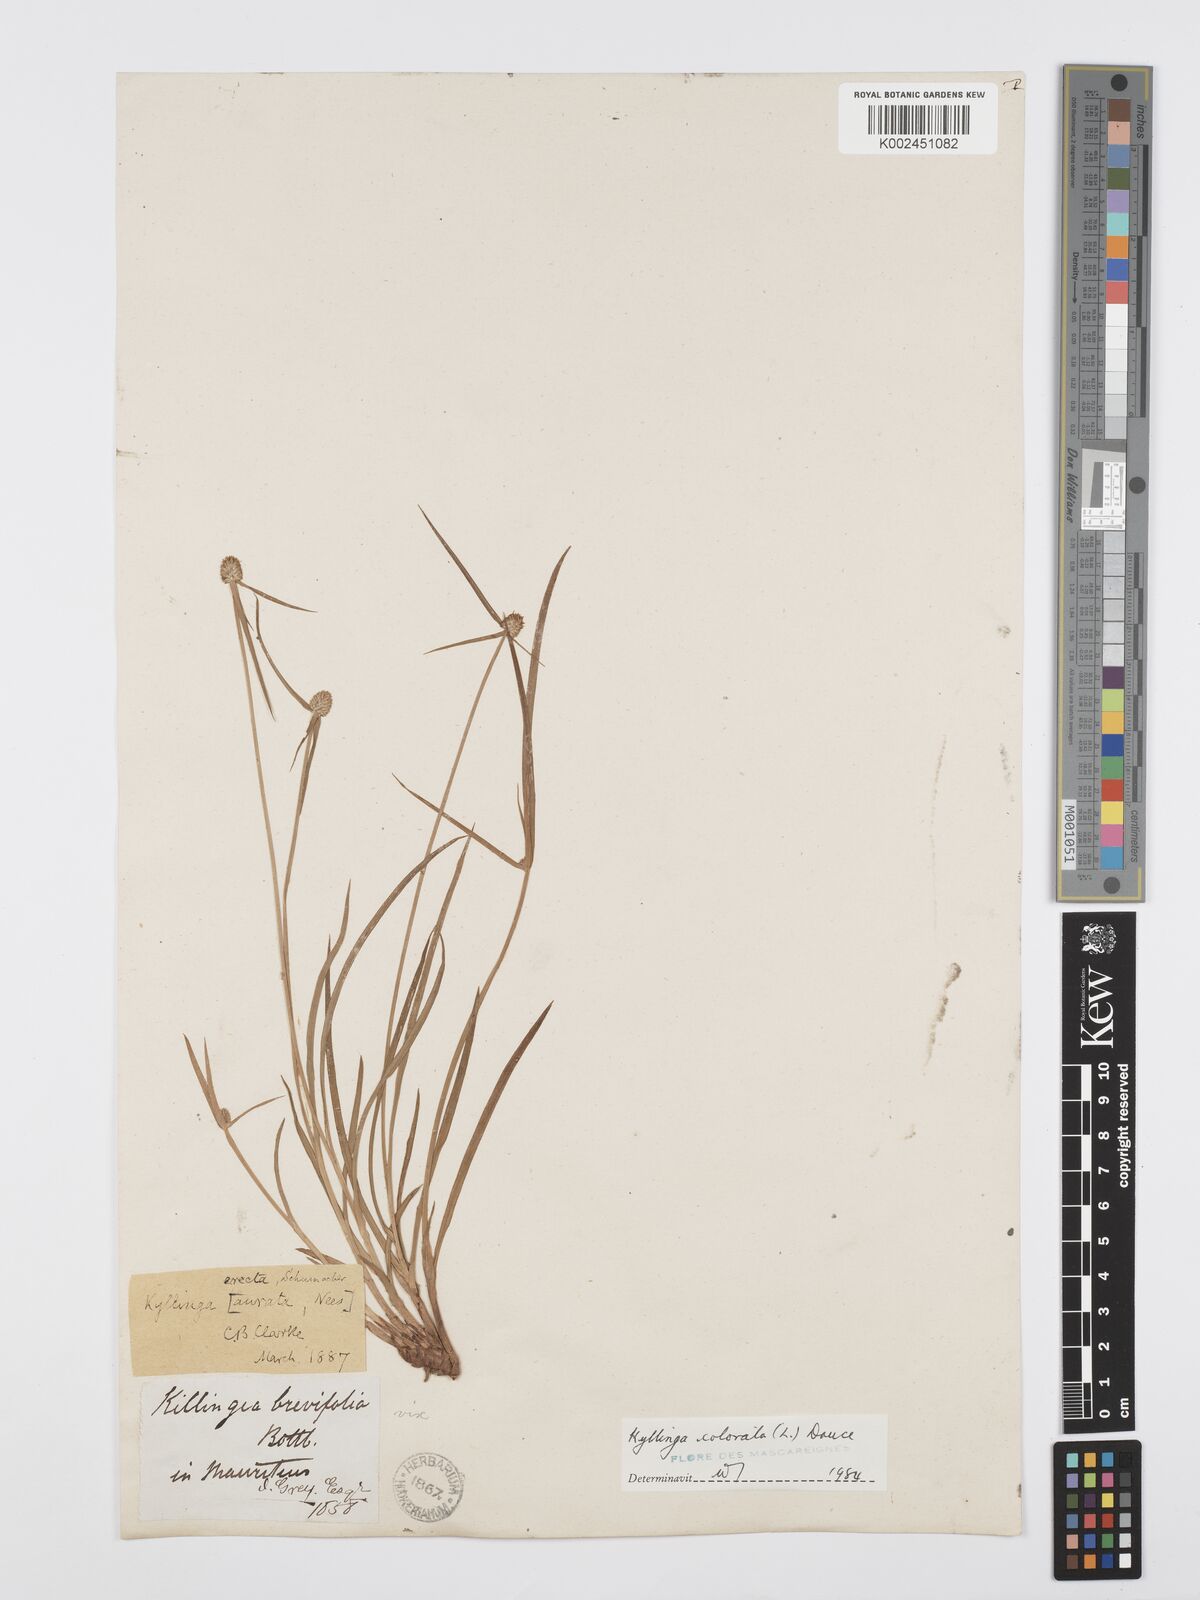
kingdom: Plantae
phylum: Tracheophyta
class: Liliopsida
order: Poales
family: Cyperaceae
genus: Cyperus
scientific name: Cyperus brevifolius
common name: Globe kyllinga
